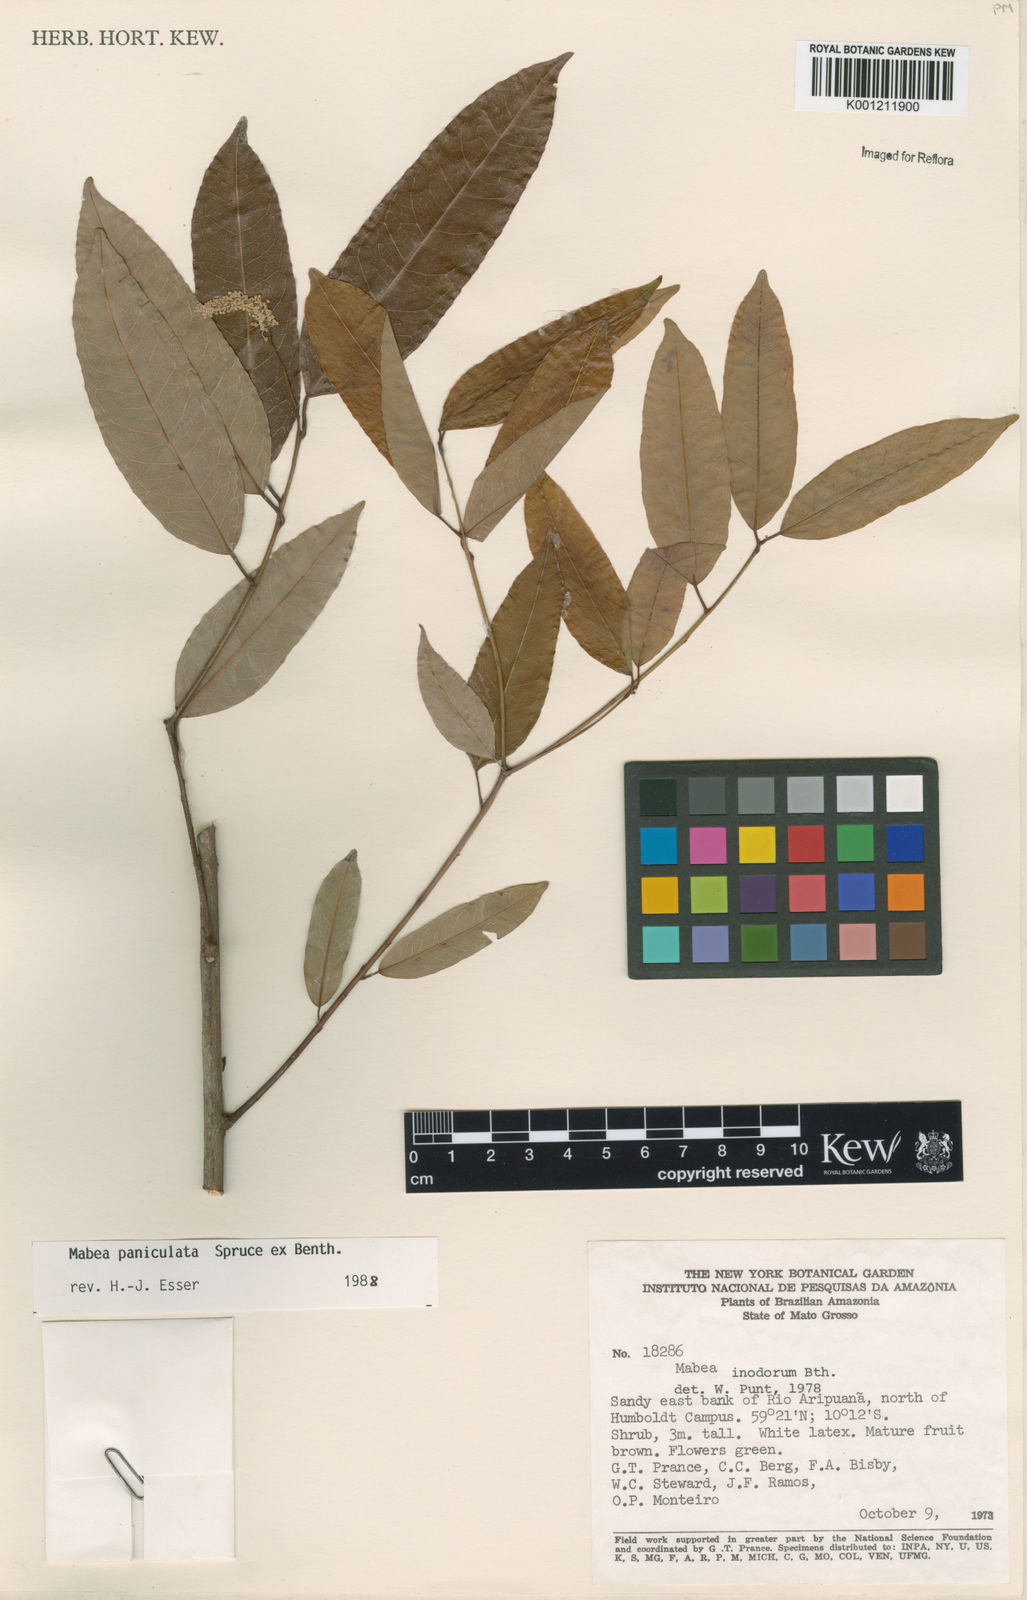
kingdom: Plantae
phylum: Tracheophyta
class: Magnoliopsida
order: Malpighiales
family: Euphorbiaceae
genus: Mabea
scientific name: Mabea paniculata
